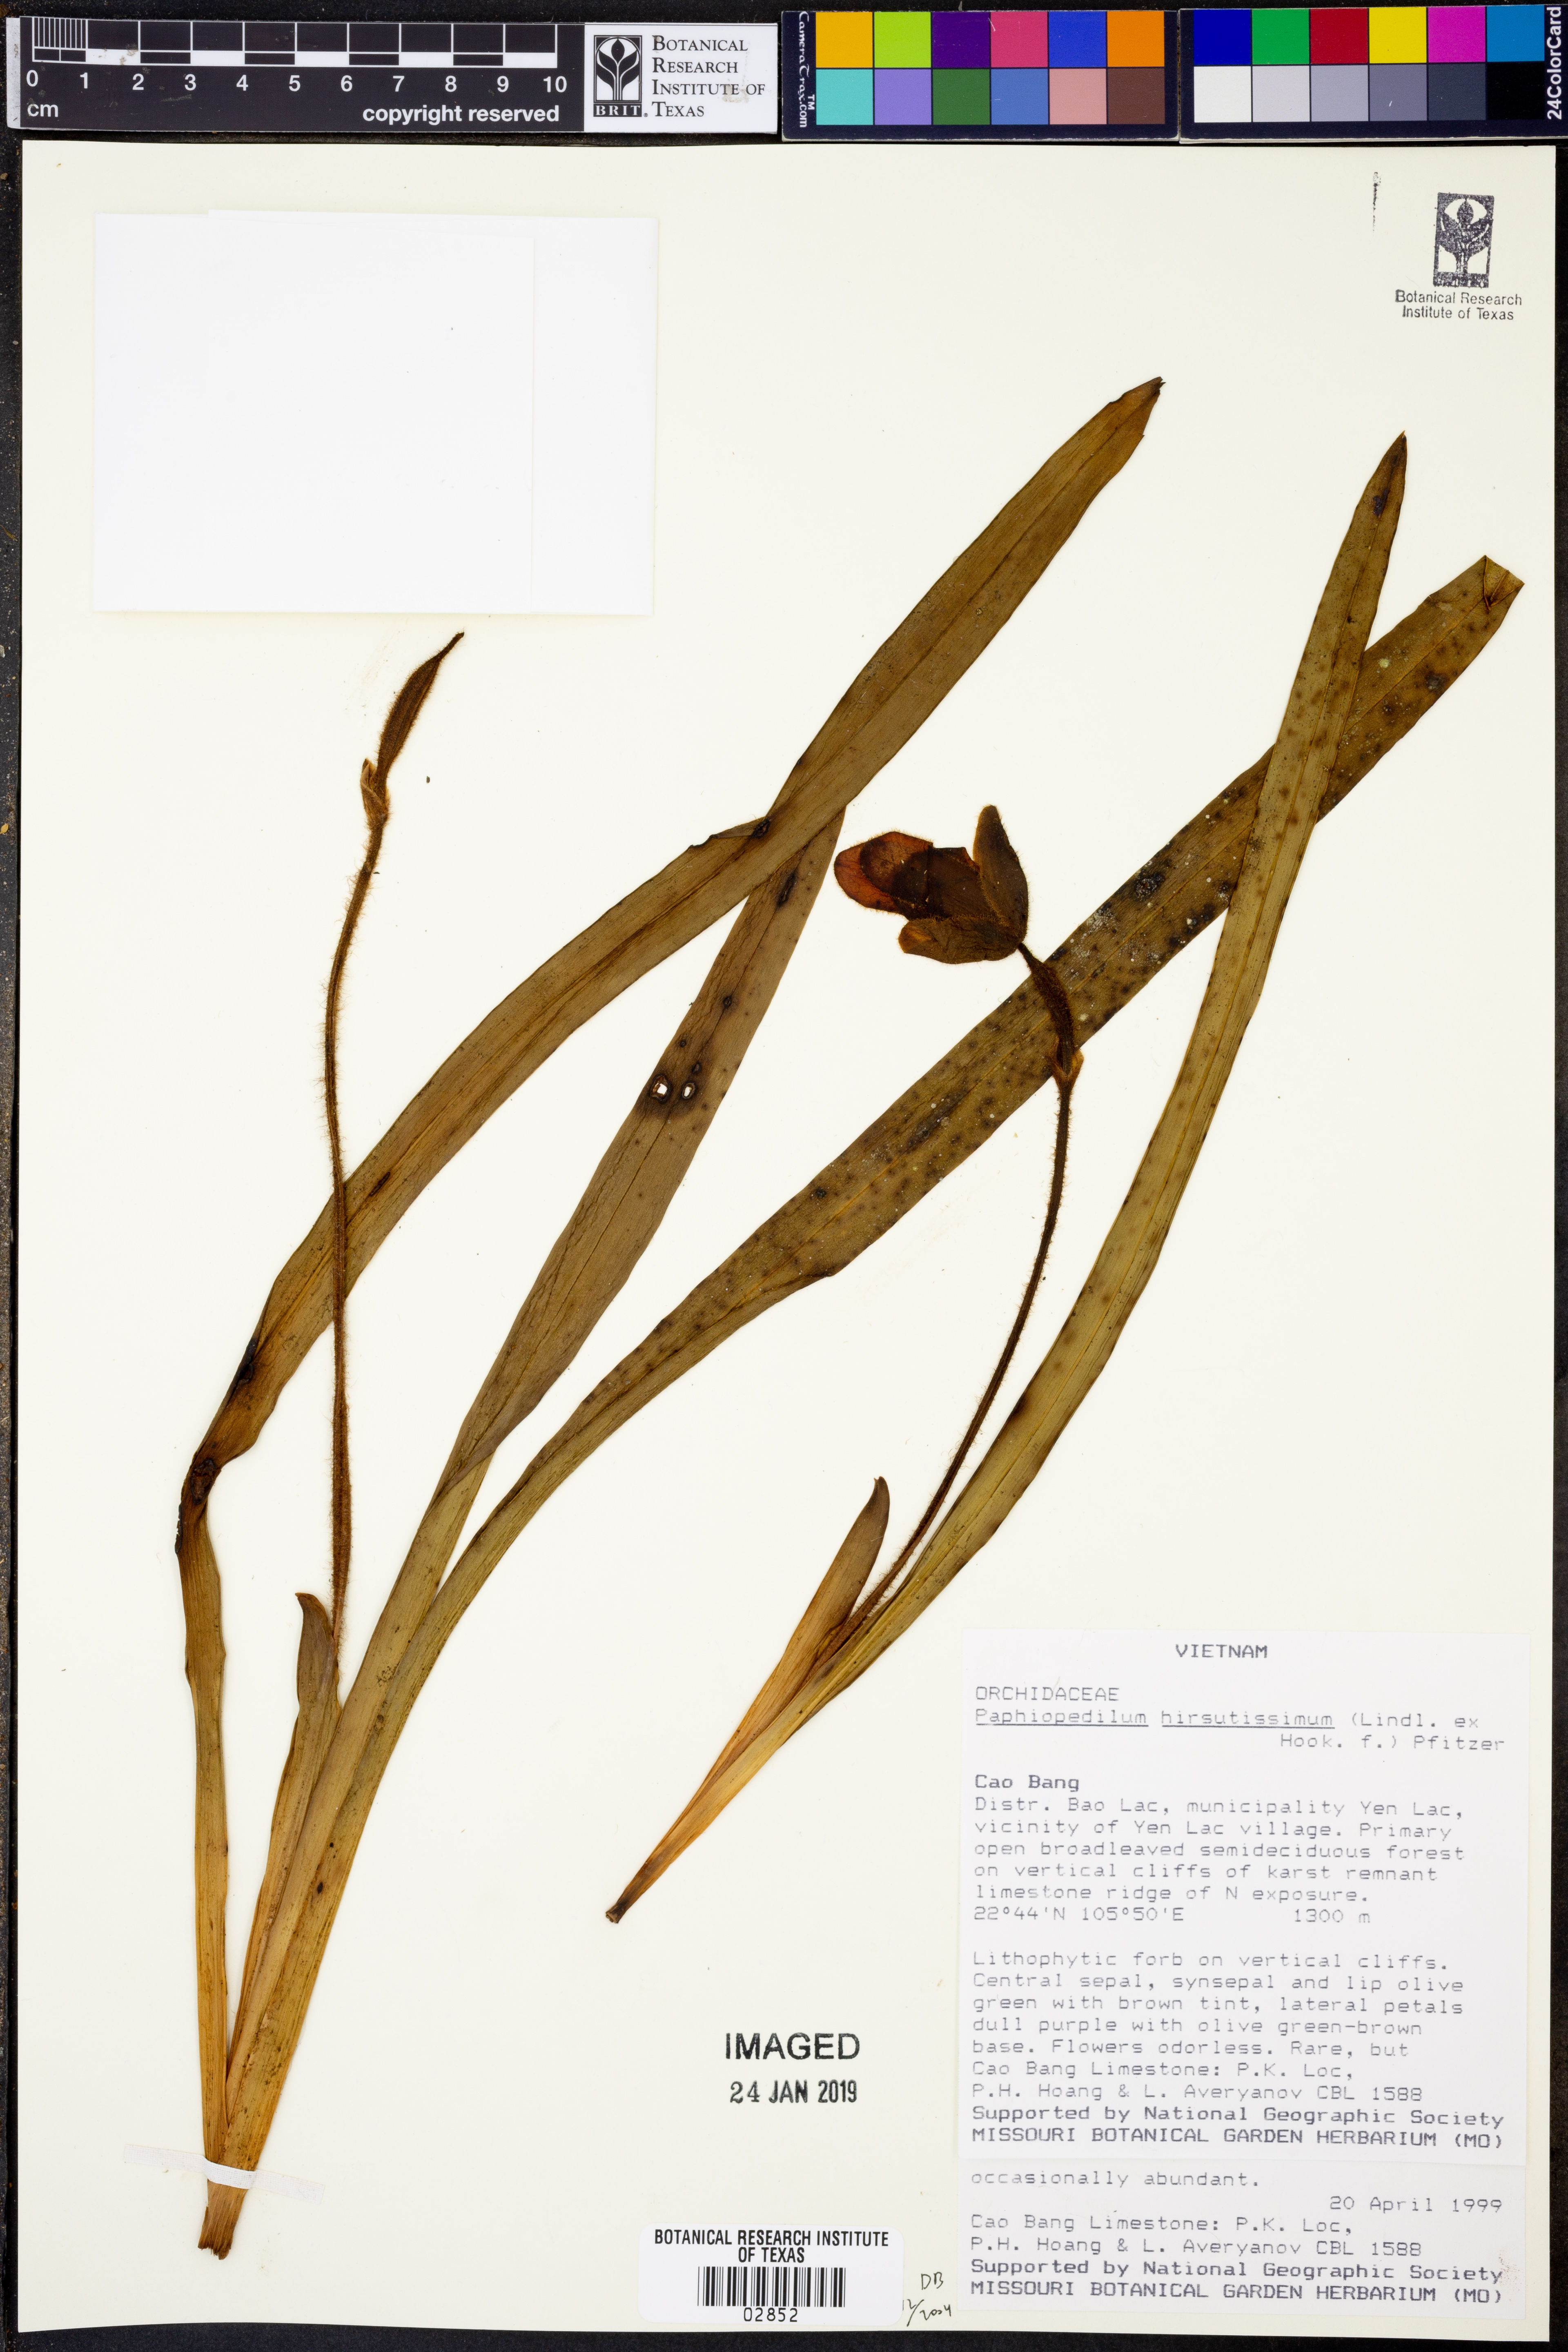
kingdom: Plantae
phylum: Tracheophyta
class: Liliopsida
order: Asparagales
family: Orchidaceae
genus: Paphiopedilum
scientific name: Paphiopedilum hirsutissimum
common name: Shaggy paphiopedilum
